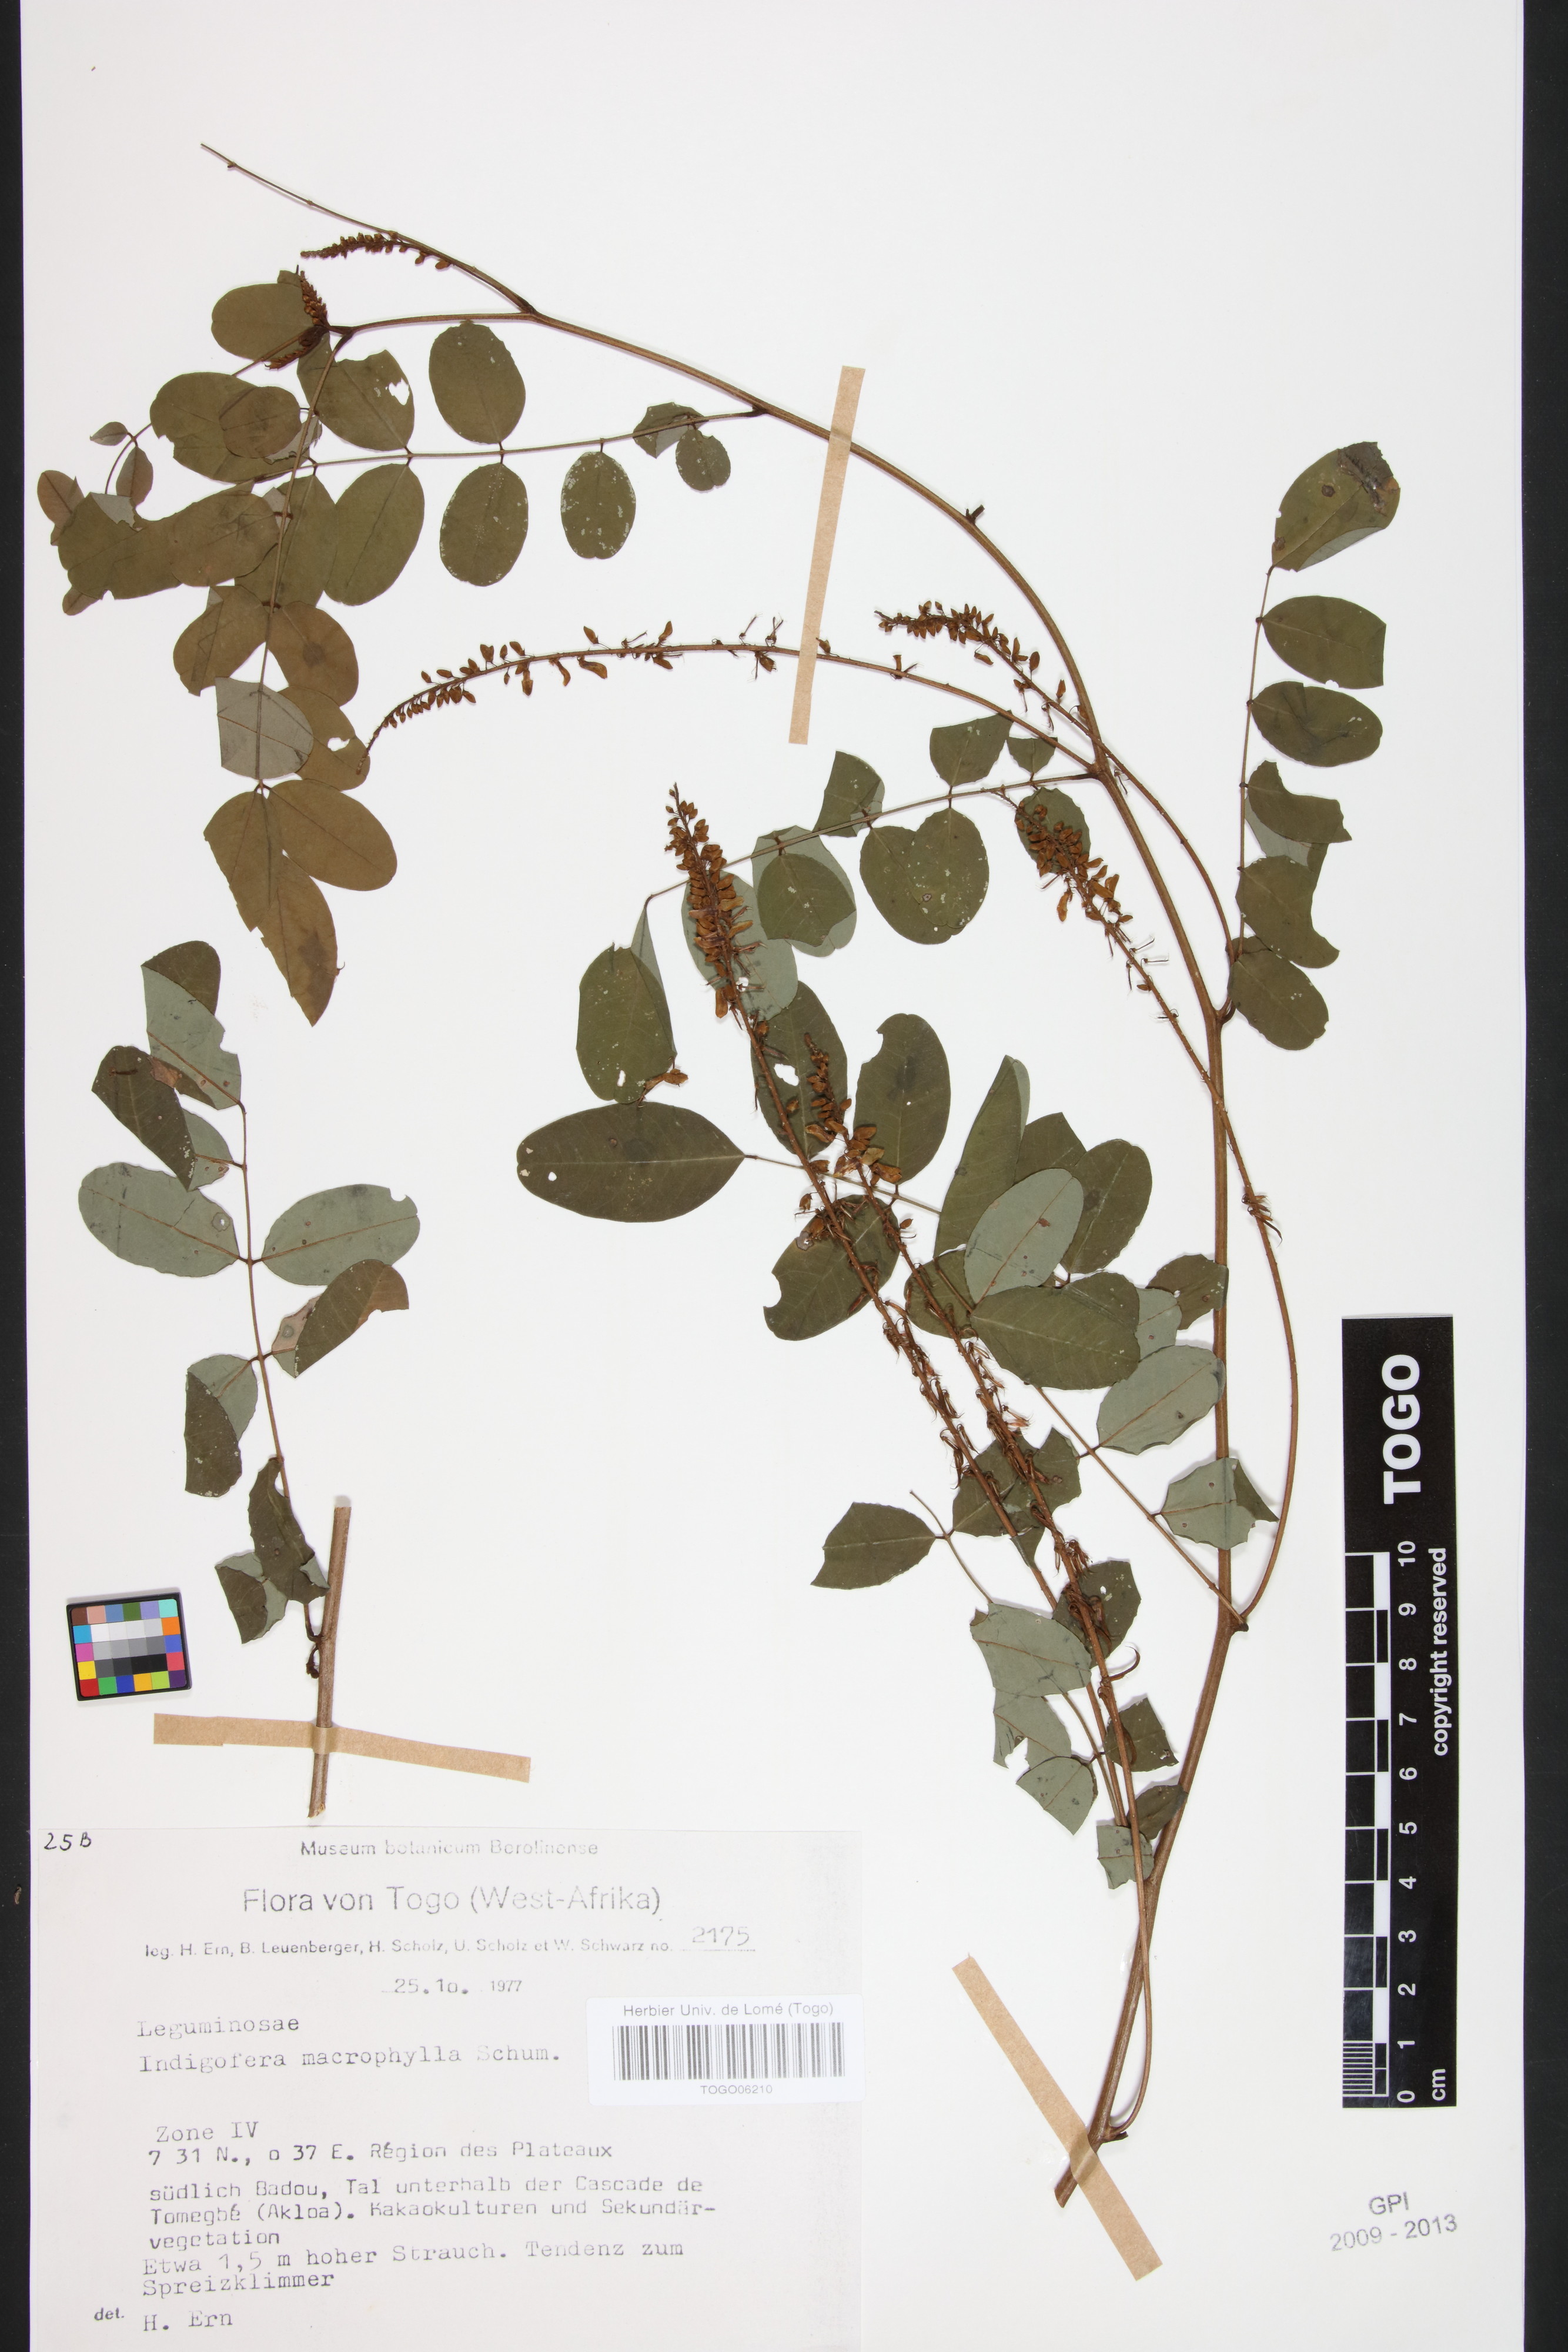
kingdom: Plantae
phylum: Tracheophyta
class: Magnoliopsida
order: Fabales
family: Fabaceae
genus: Indigofera
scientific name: Indigofera macrophylla
